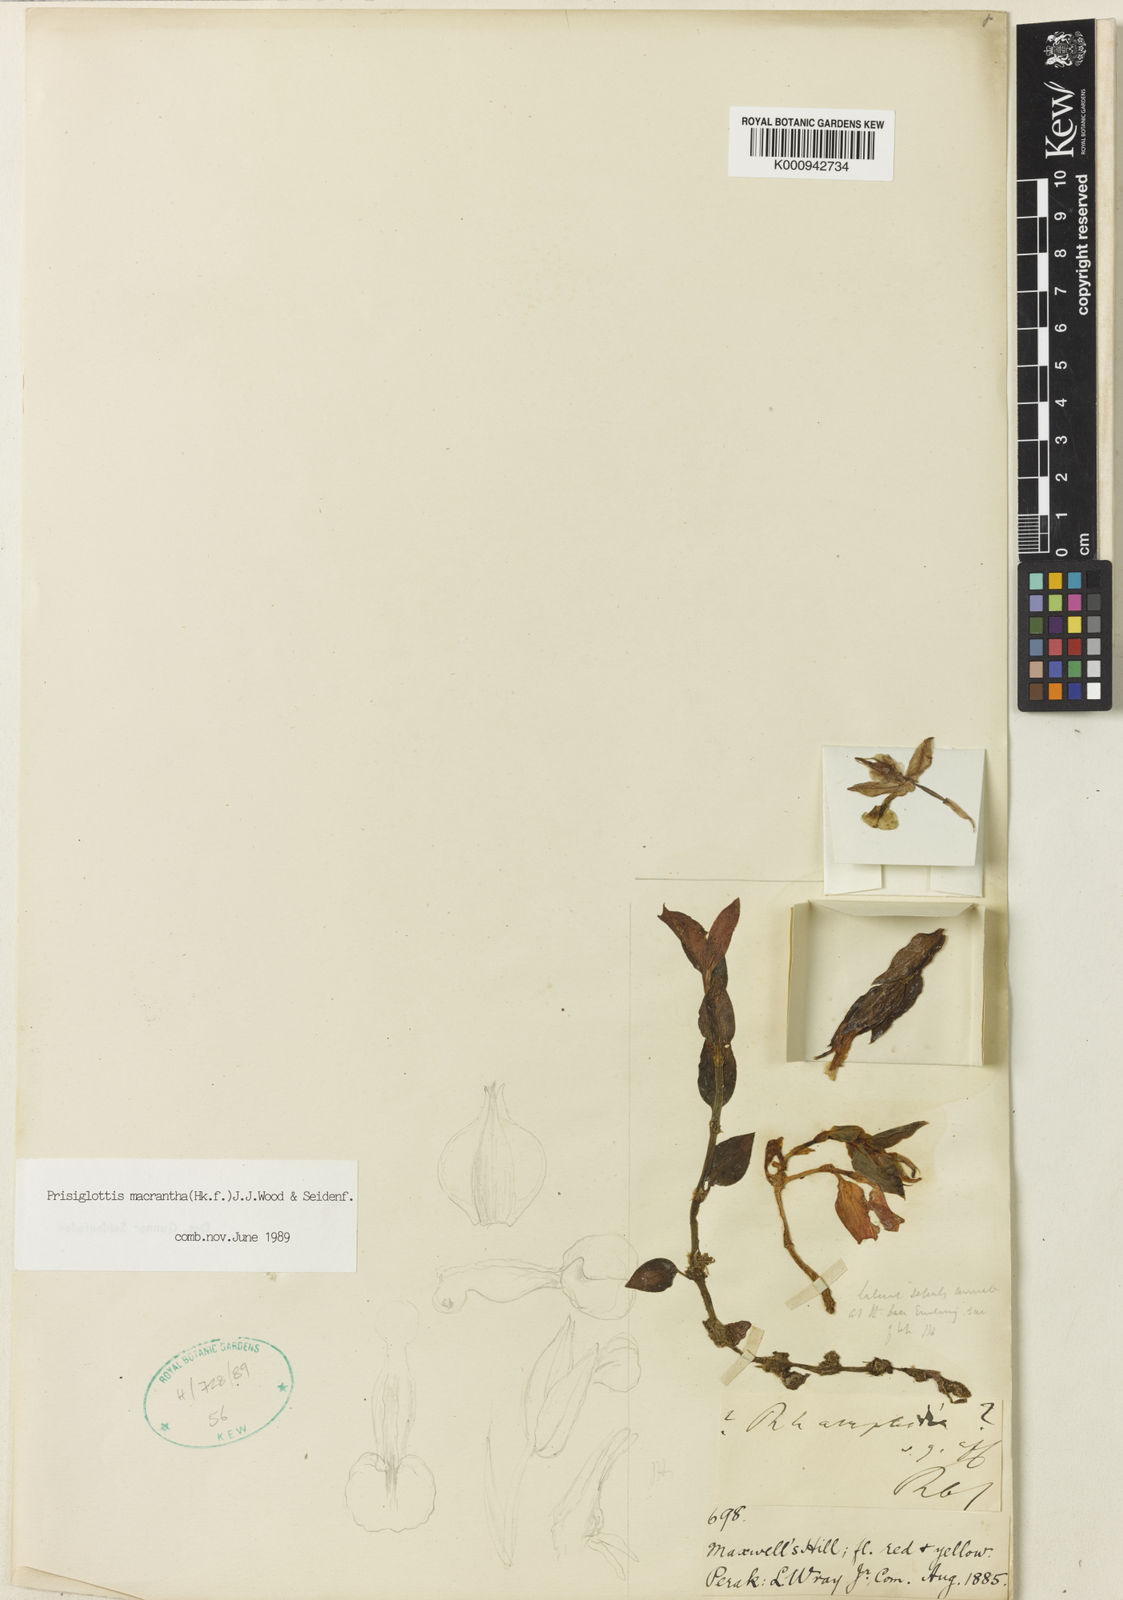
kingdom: Plantae
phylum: Tracheophyta
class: Liliopsida
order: Asparagales
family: Orchidaceae
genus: Odontochilus
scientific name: Odontochilus macranthus
